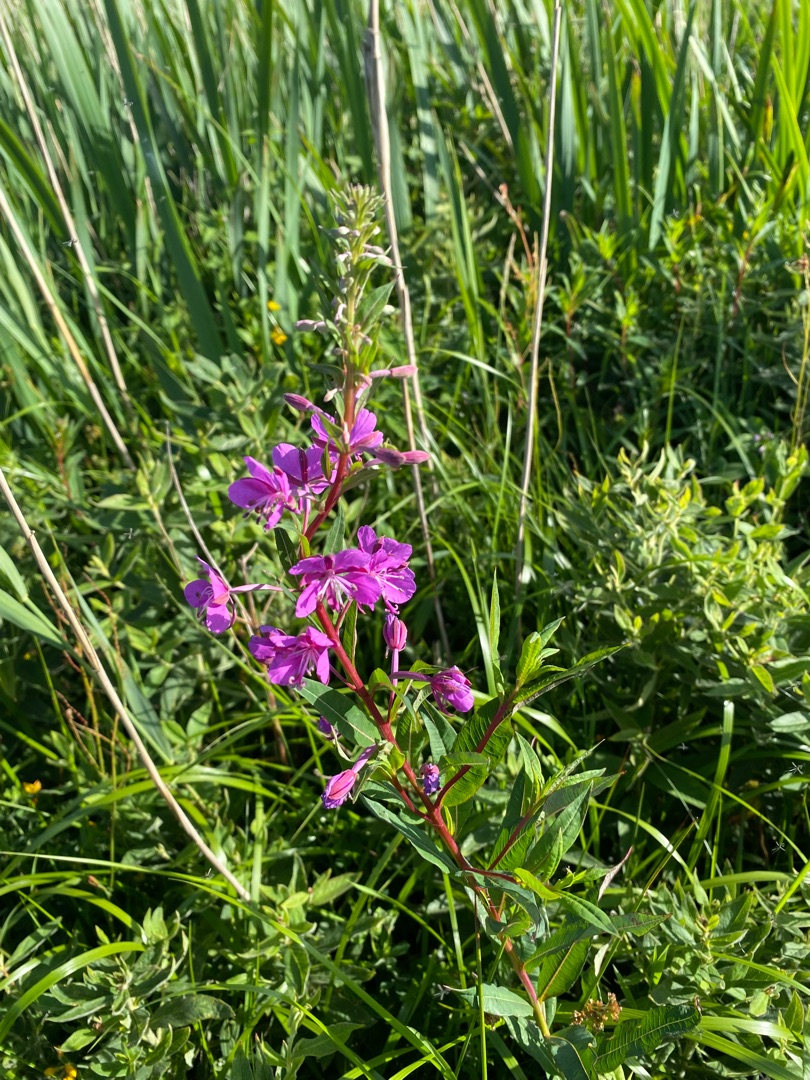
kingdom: Plantae
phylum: Tracheophyta
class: Magnoliopsida
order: Myrtales
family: Onagraceae
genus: Chamaenerion
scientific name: Chamaenerion angustifolium
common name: Gederams
